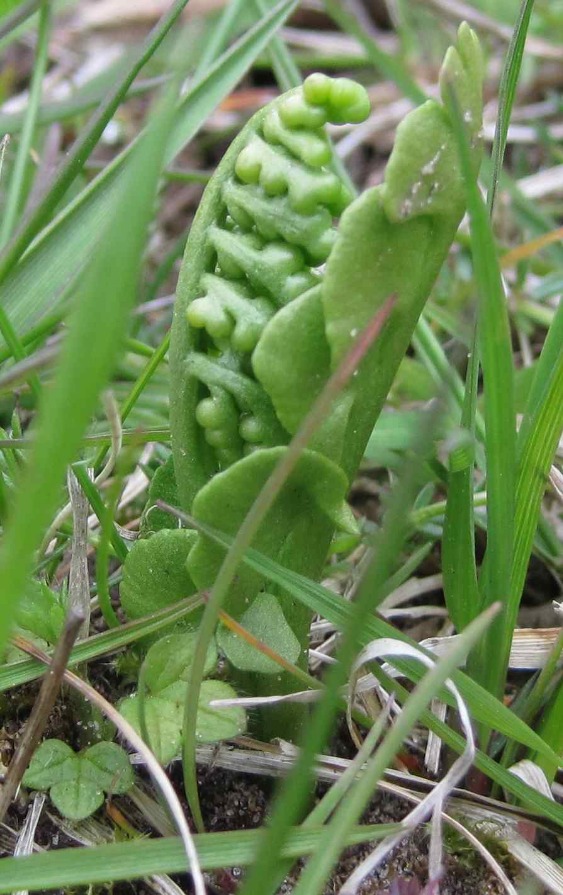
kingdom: Plantae
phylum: Tracheophyta
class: Polypodiopsida
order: Ophioglossales
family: Ophioglossaceae
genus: Botrychium
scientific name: Botrychium lunaria
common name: Almindelig månerude
